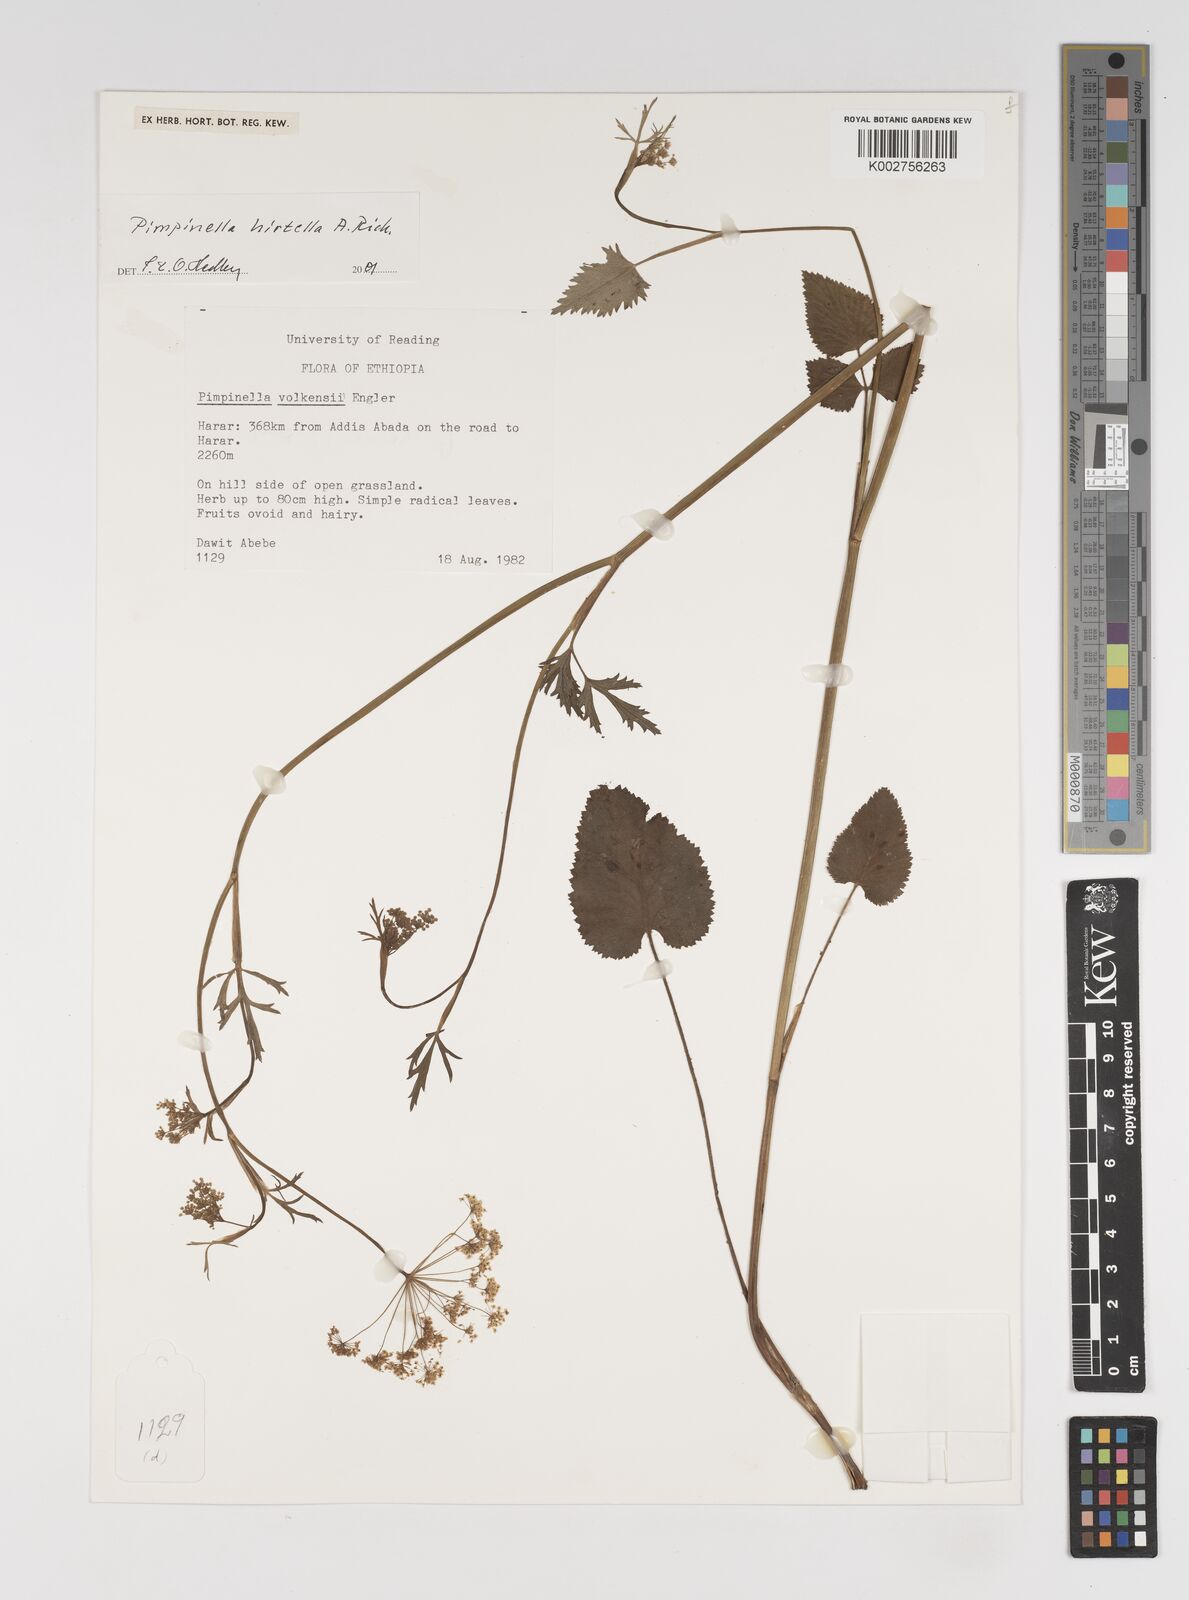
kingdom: Plantae
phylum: Tracheophyta
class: Magnoliopsida
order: Apiales
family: Apiaceae
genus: Pimpinella
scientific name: Pimpinella hirtella
